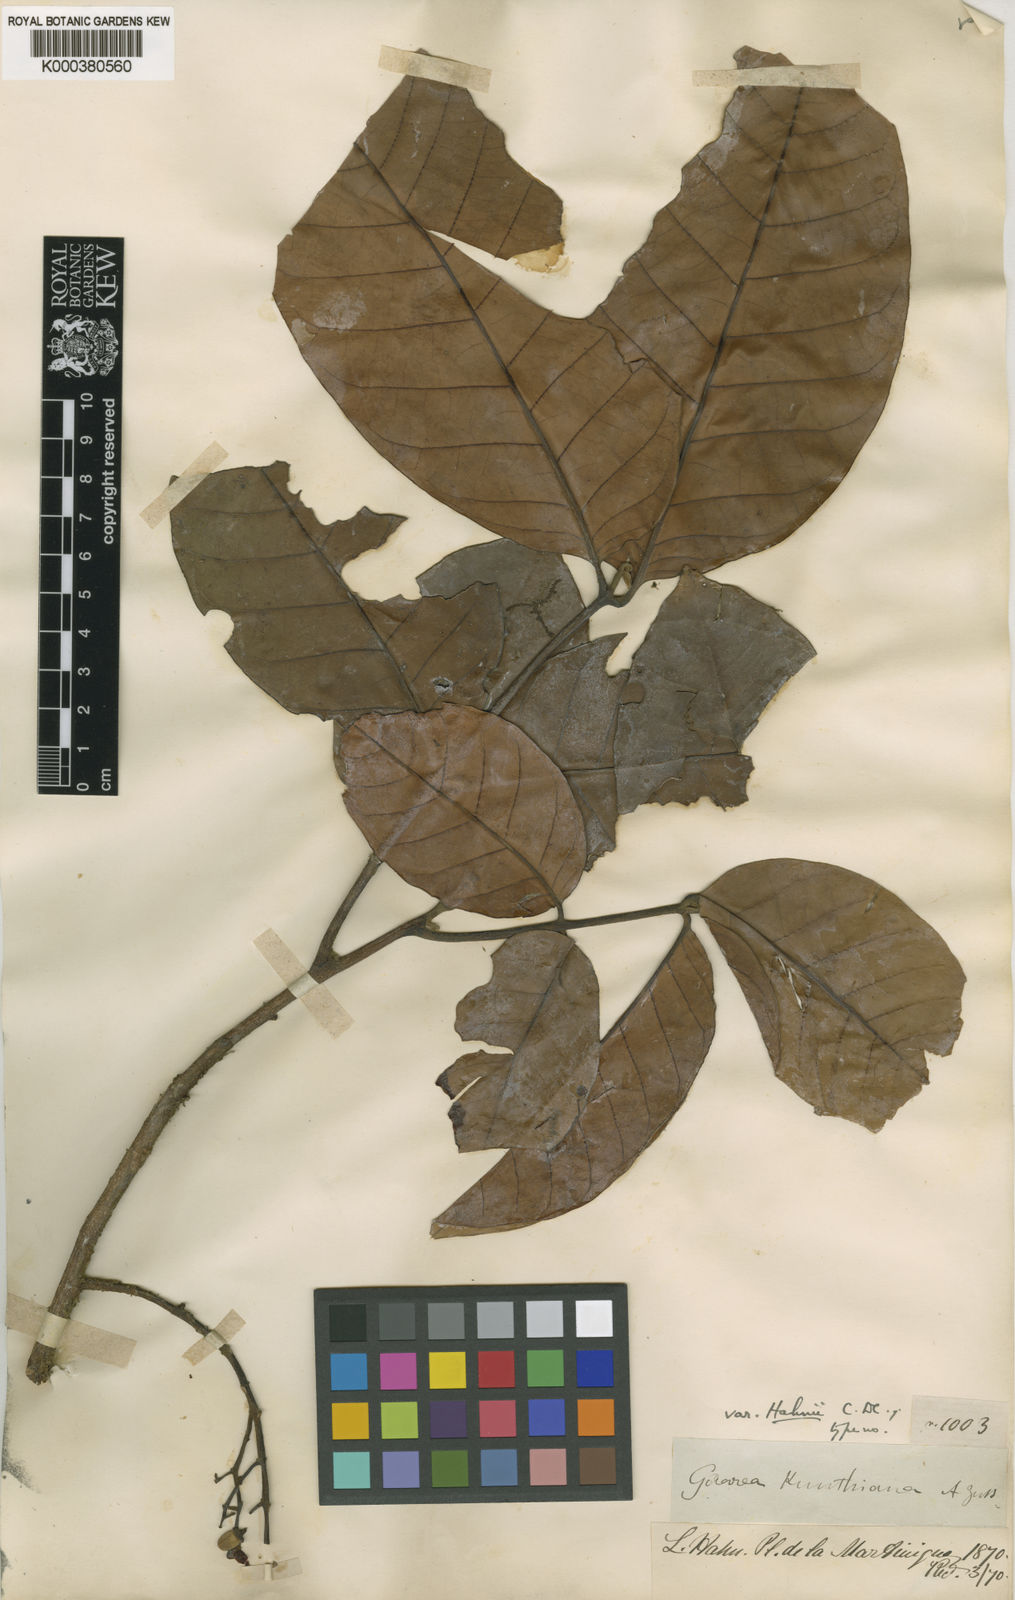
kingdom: Plantae
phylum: Tracheophyta
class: Magnoliopsida
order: Sapindales
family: Meliaceae
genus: Guarea
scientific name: Guarea
